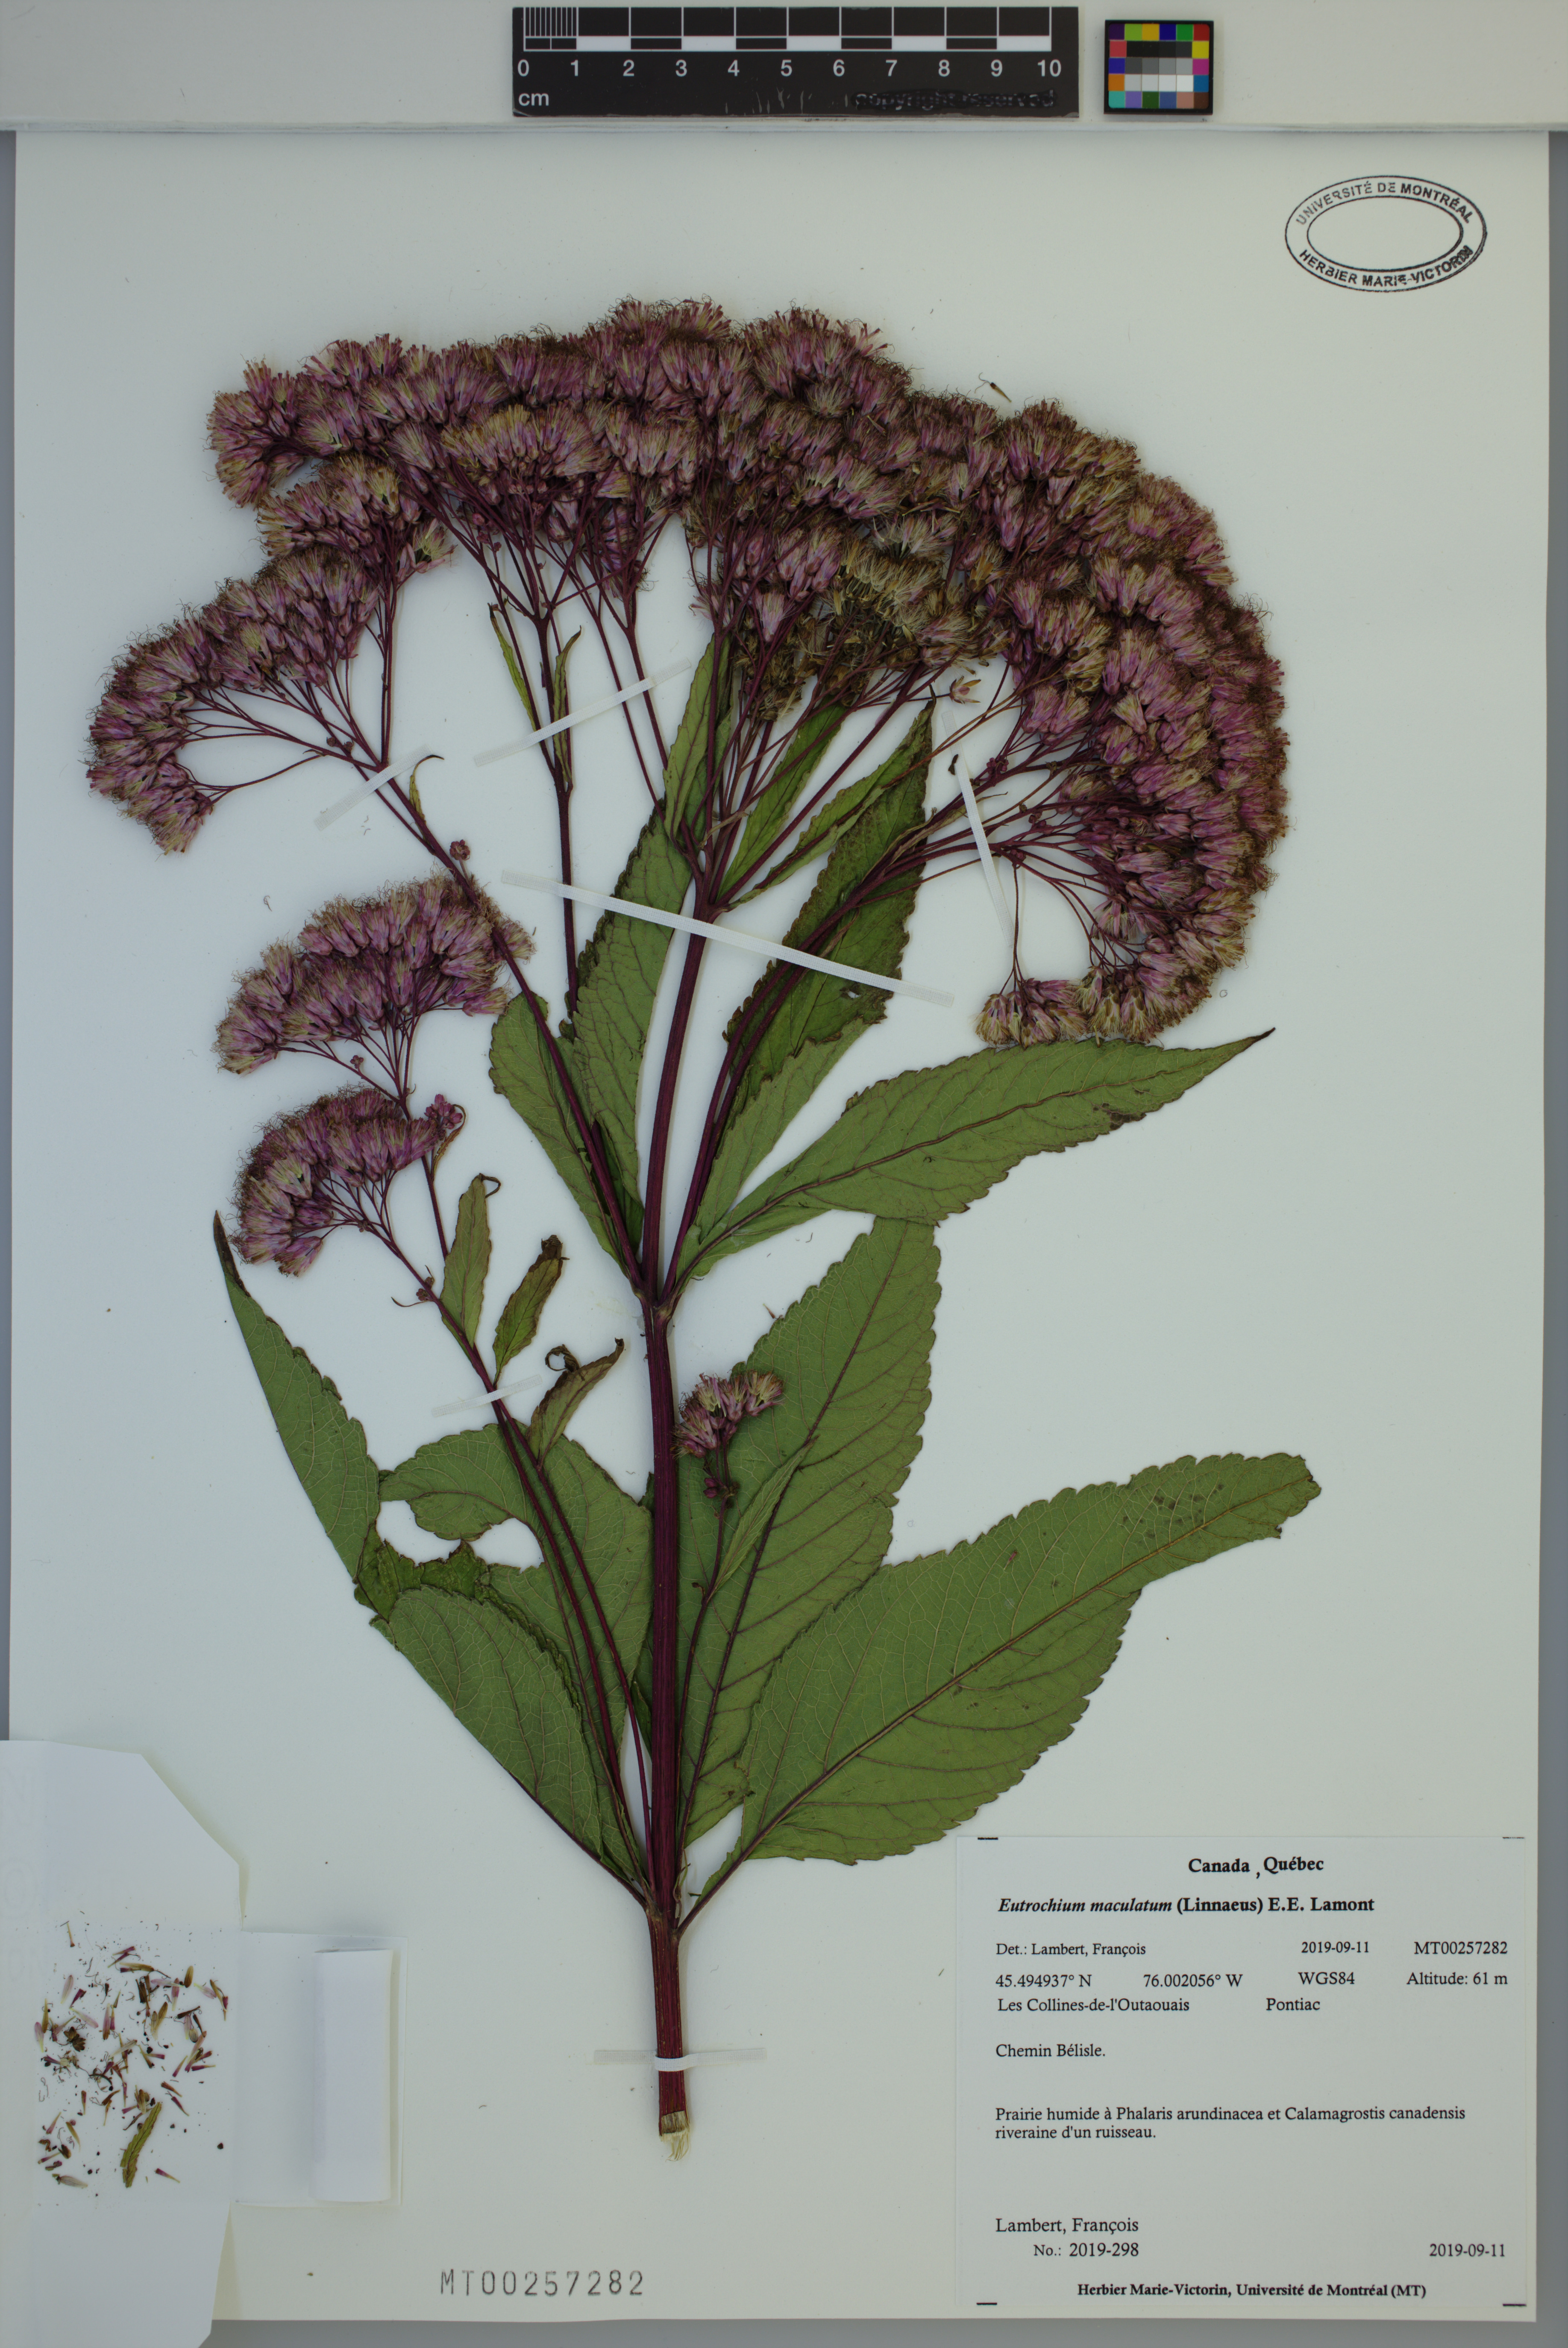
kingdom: Plantae
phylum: Tracheophyta
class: Magnoliopsida
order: Asterales
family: Asteraceae
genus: Eutrochium
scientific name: Eutrochium maculatum
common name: Spotted joe pye weed
